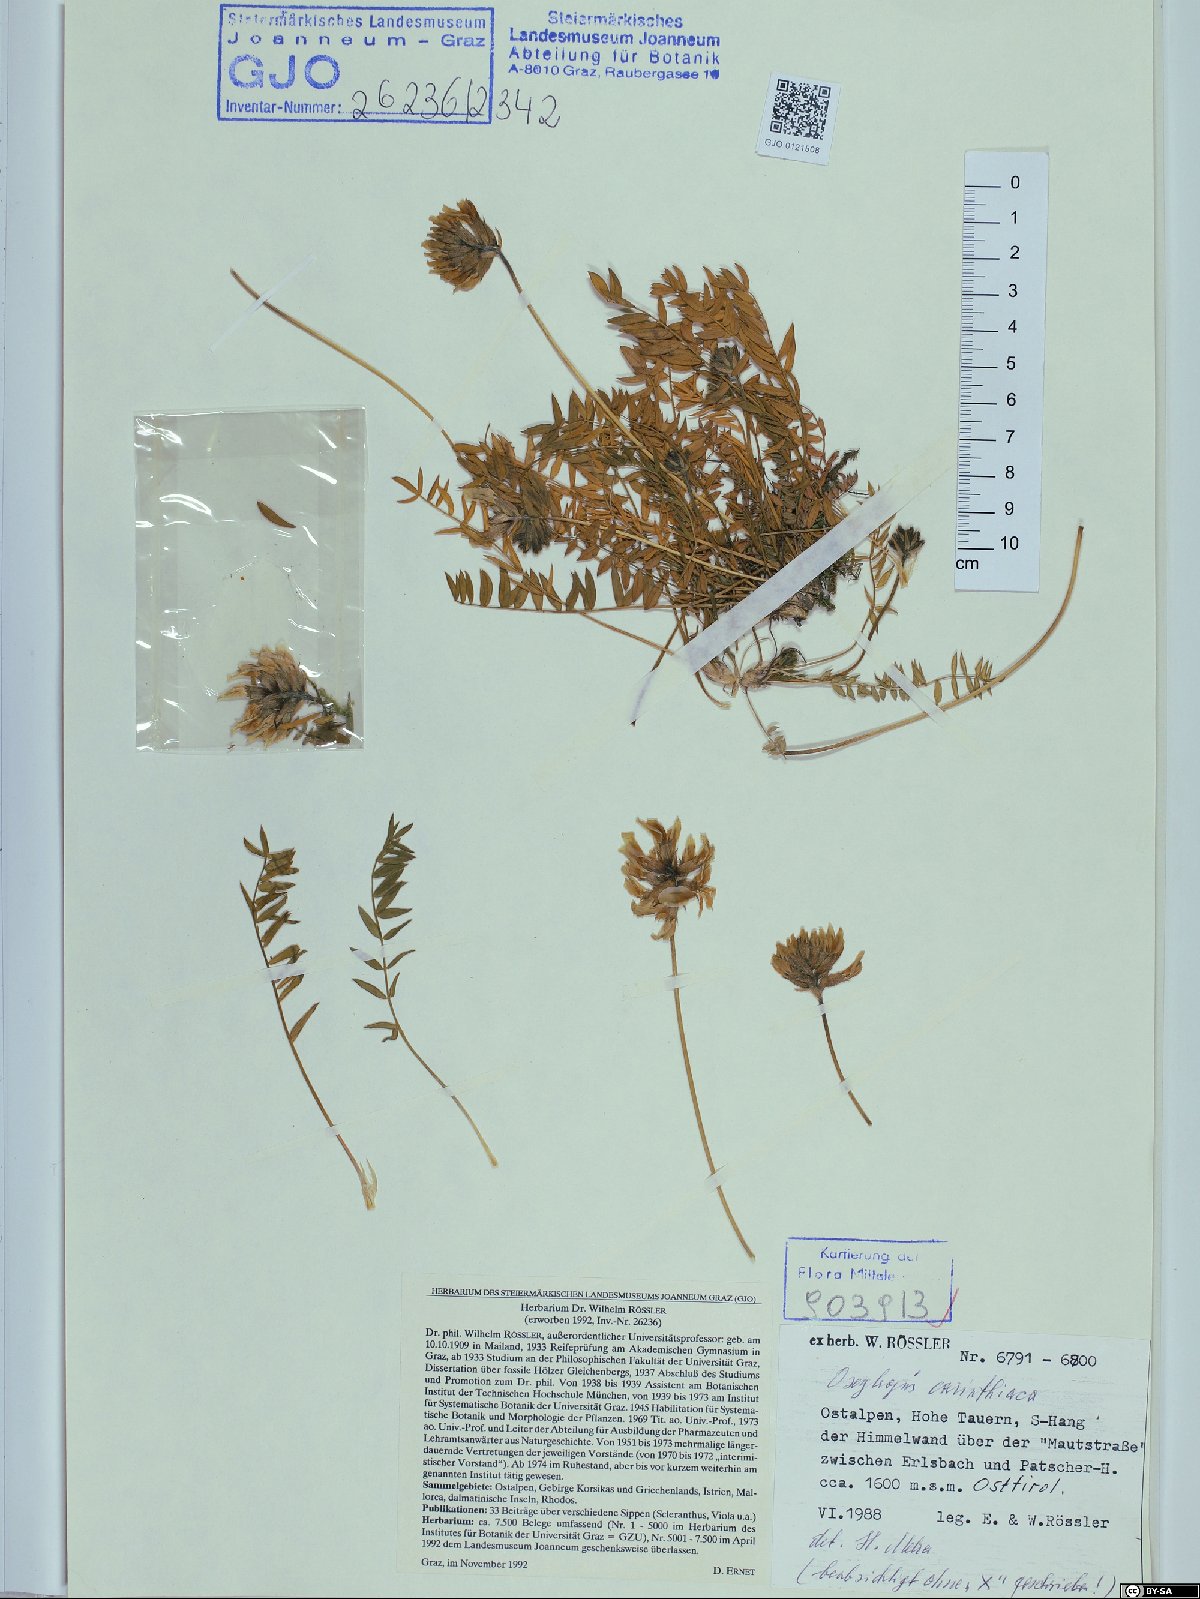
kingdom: Plantae
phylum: Tracheophyta
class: Magnoliopsida
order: Fabales
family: Fabaceae
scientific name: Fabaceae
